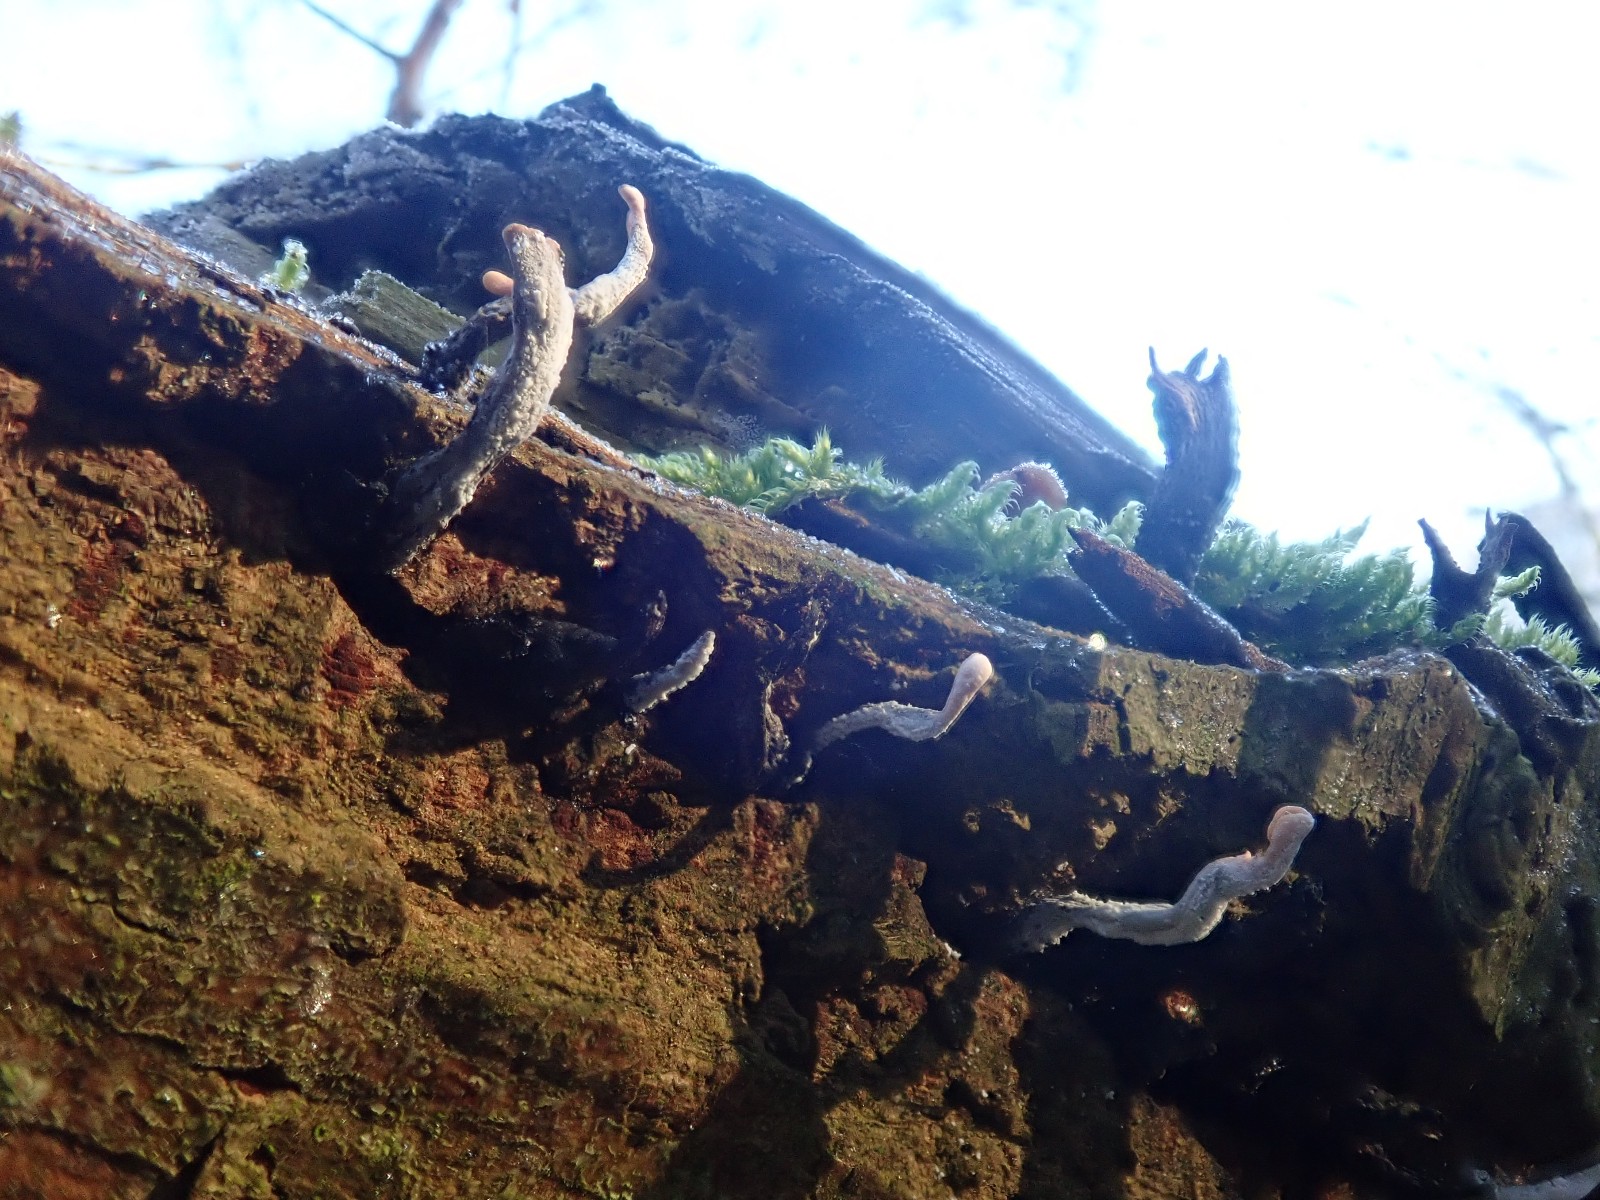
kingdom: Fungi
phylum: Ascomycota
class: Sordariomycetes
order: Xylariales
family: Xylariaceae
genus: Xylaria
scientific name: Xylaria hypoxylon
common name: grenet stødsvamp
